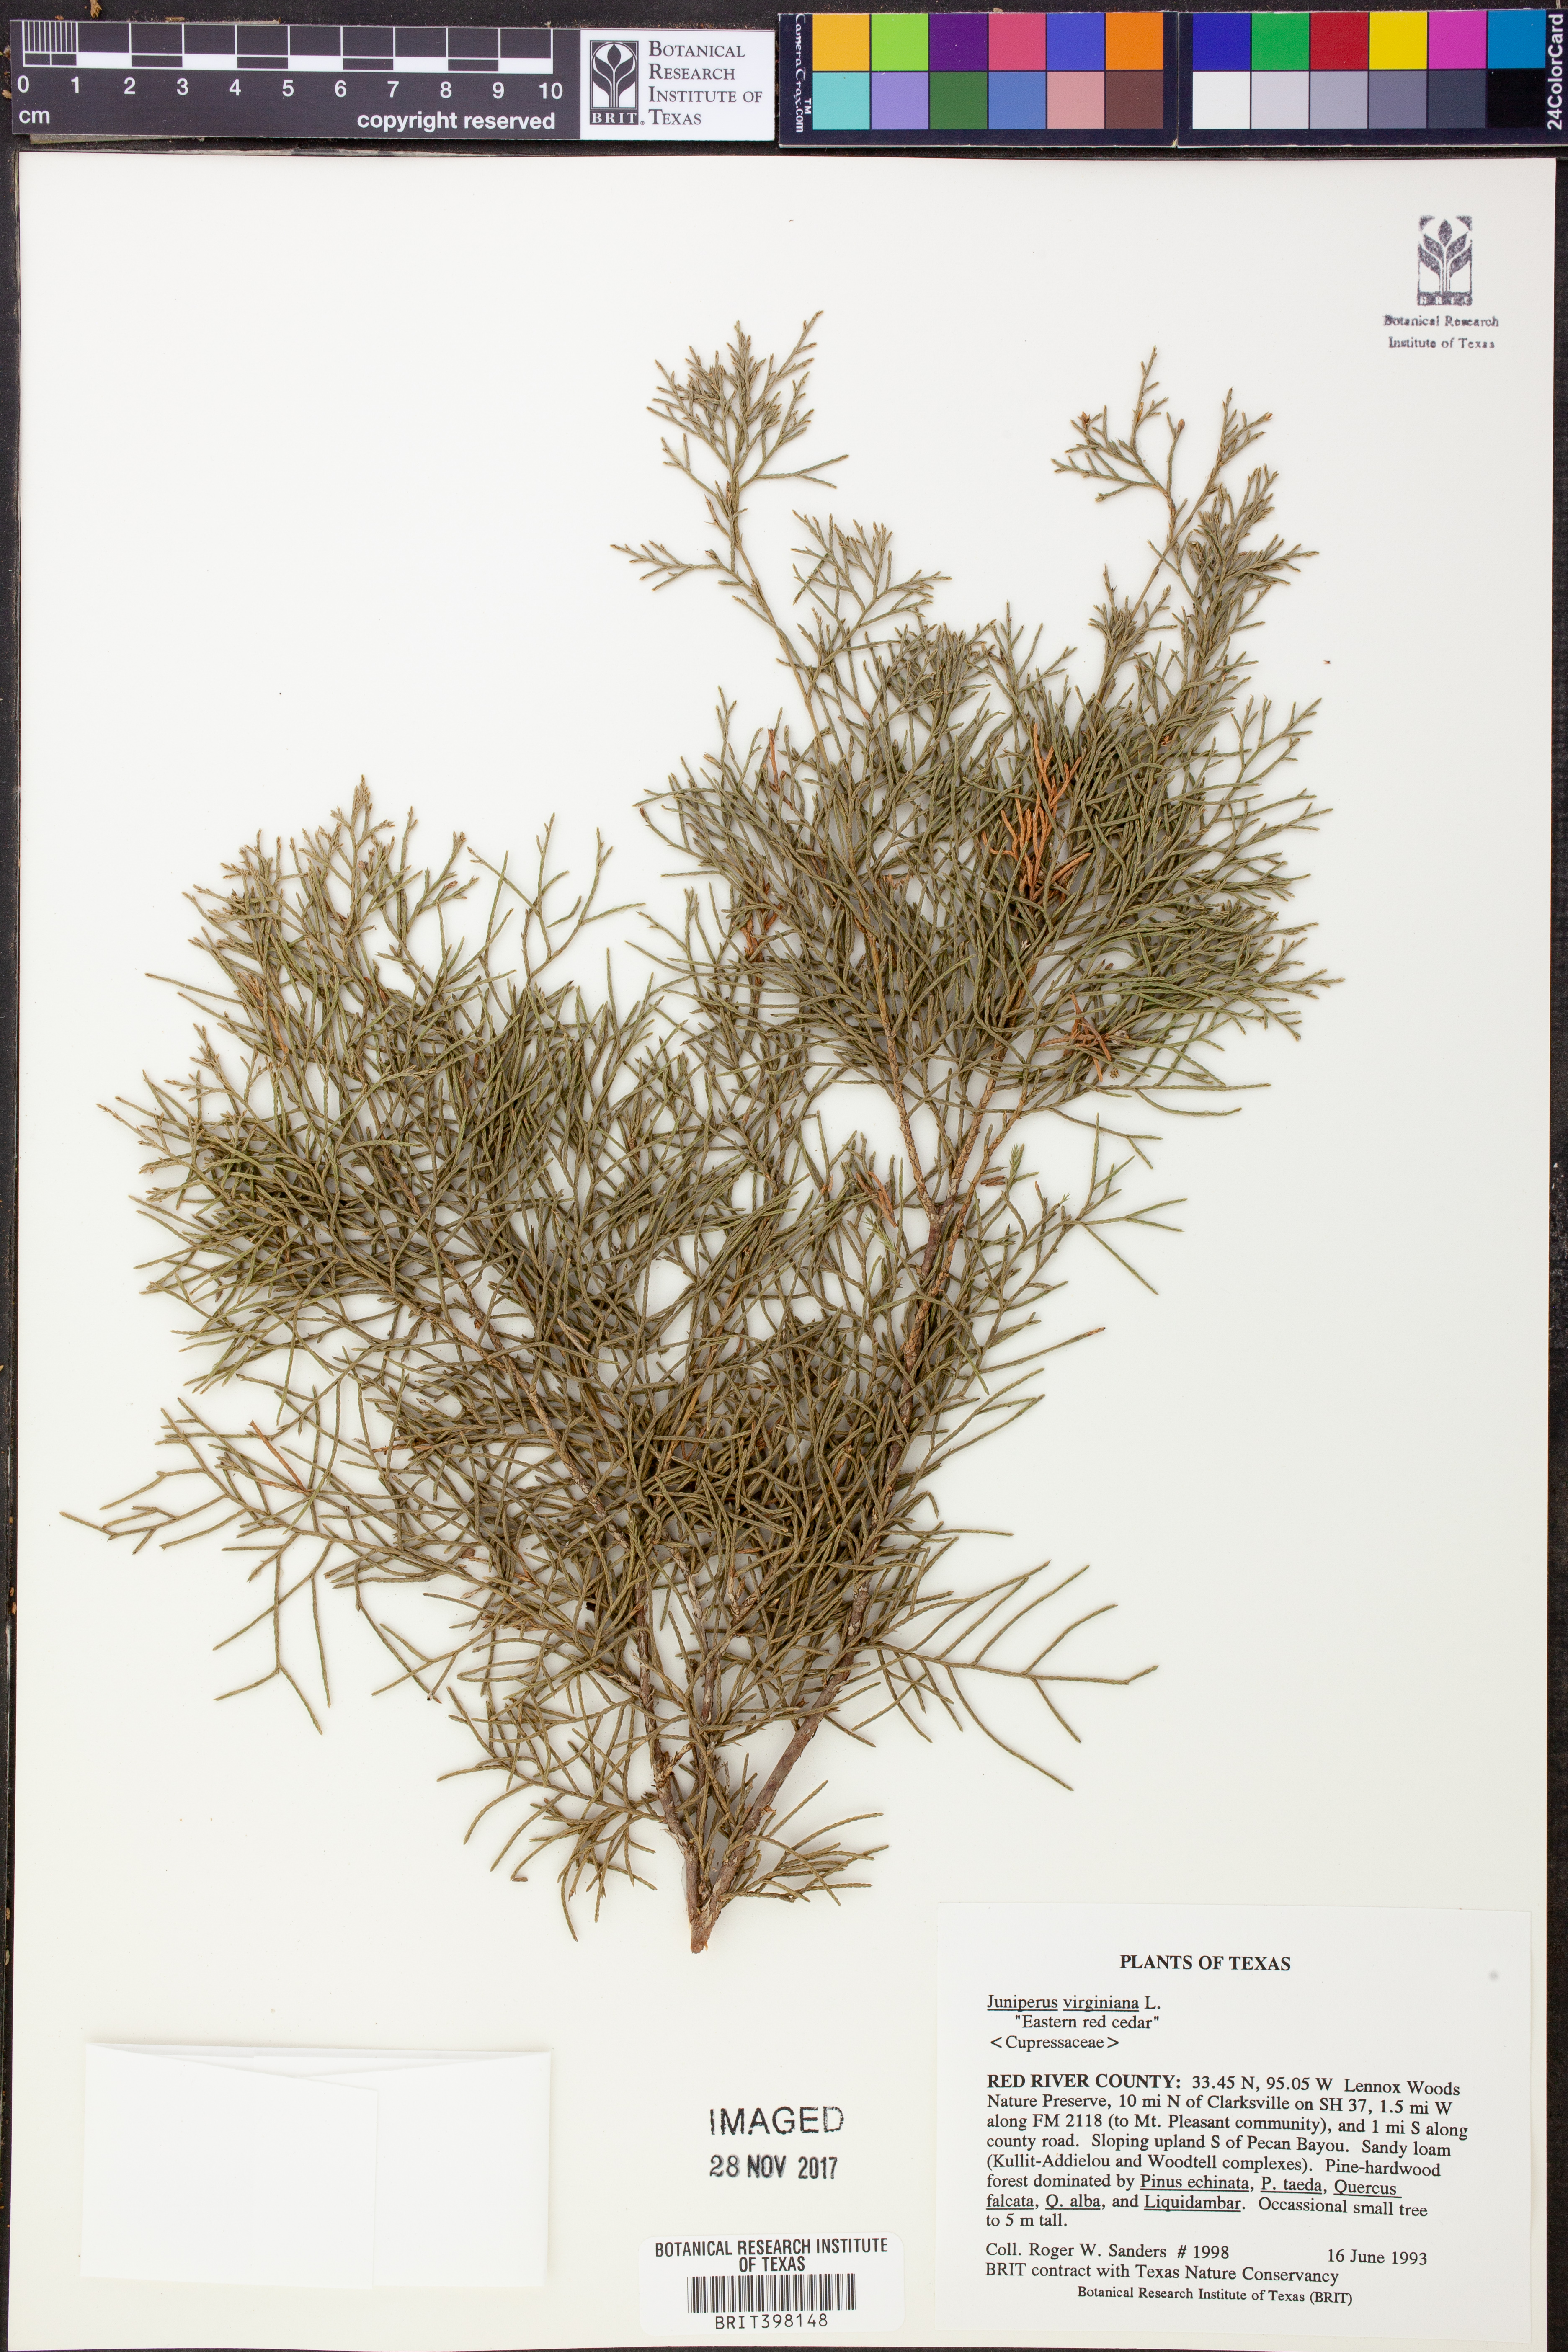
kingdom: Plantae
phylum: Tracheophyta
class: Pinopsida
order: Pinales
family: Cupressaceae
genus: Juniperus
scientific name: Juniperus virginiana
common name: Red juniper
